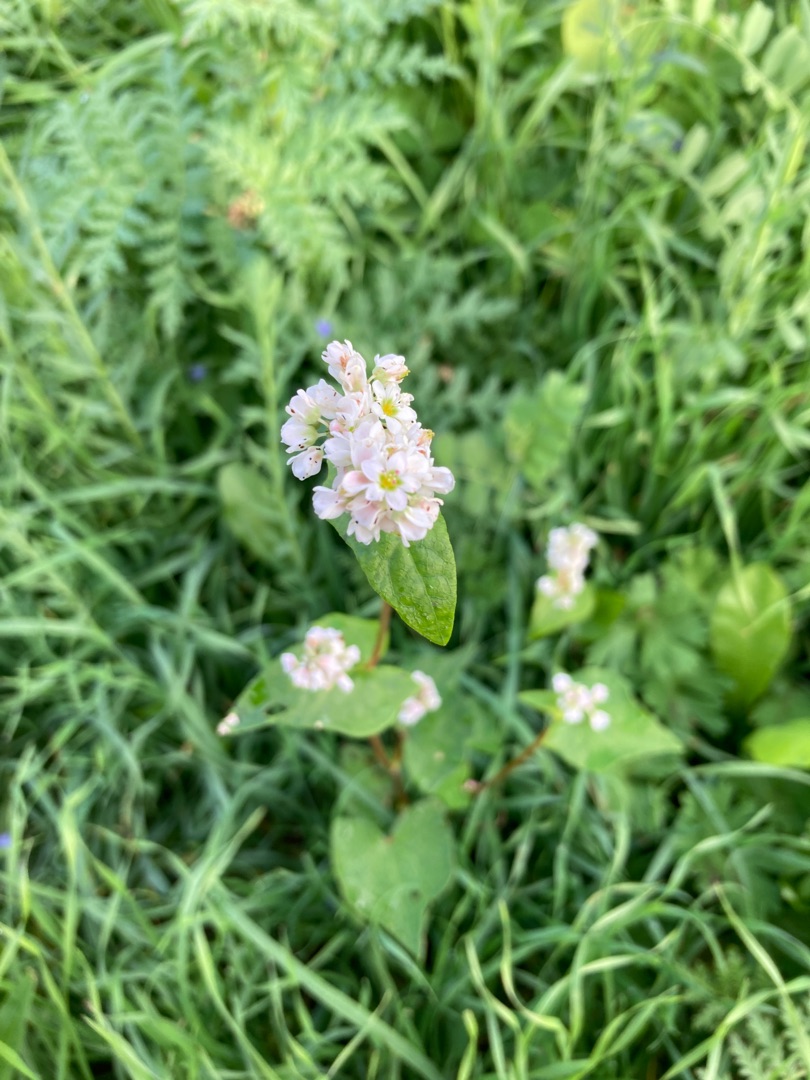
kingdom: Plantae
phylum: Tracheophyta
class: Magnoliopsida
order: Caryophyllales
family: Polygonaceae
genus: Fagopyrum
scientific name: Fagopyrum esculentum
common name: Almindelig boghvede
